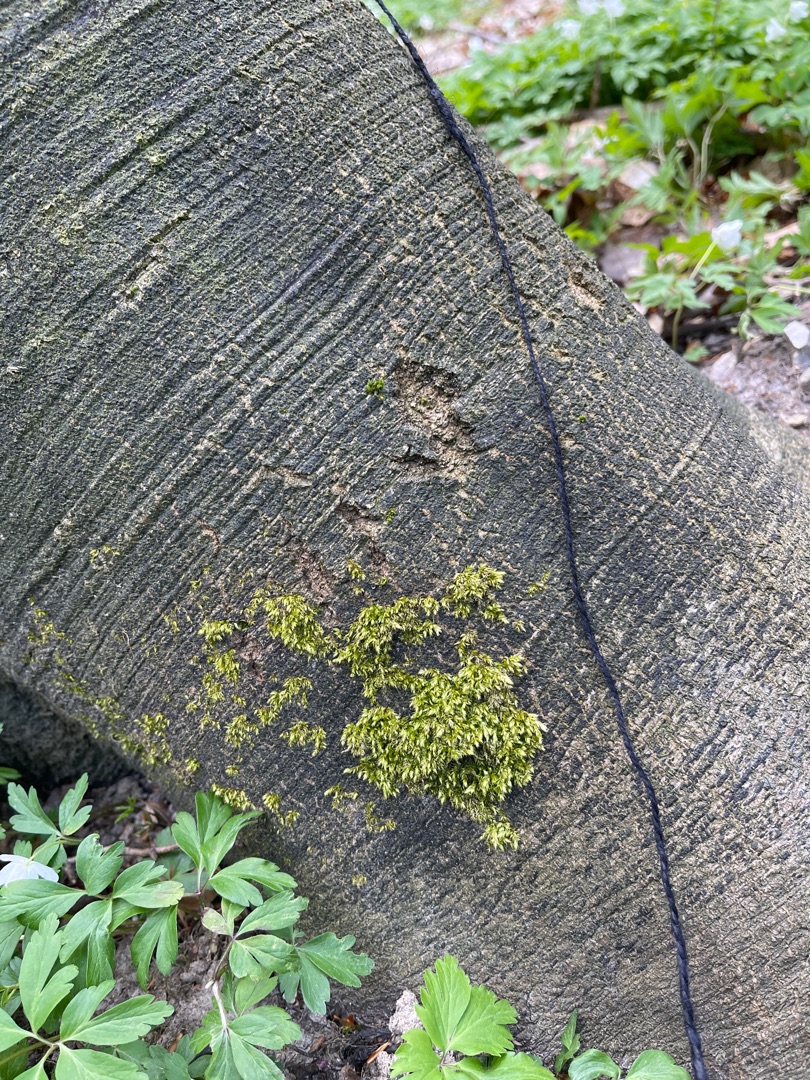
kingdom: Plantae
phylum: Bryophyta
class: Bryopsida
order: Hypnales
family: Brachytheciaceae
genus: Brachythecium
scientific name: Brachythecium rutabulum
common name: Almindelig kortkapsel
